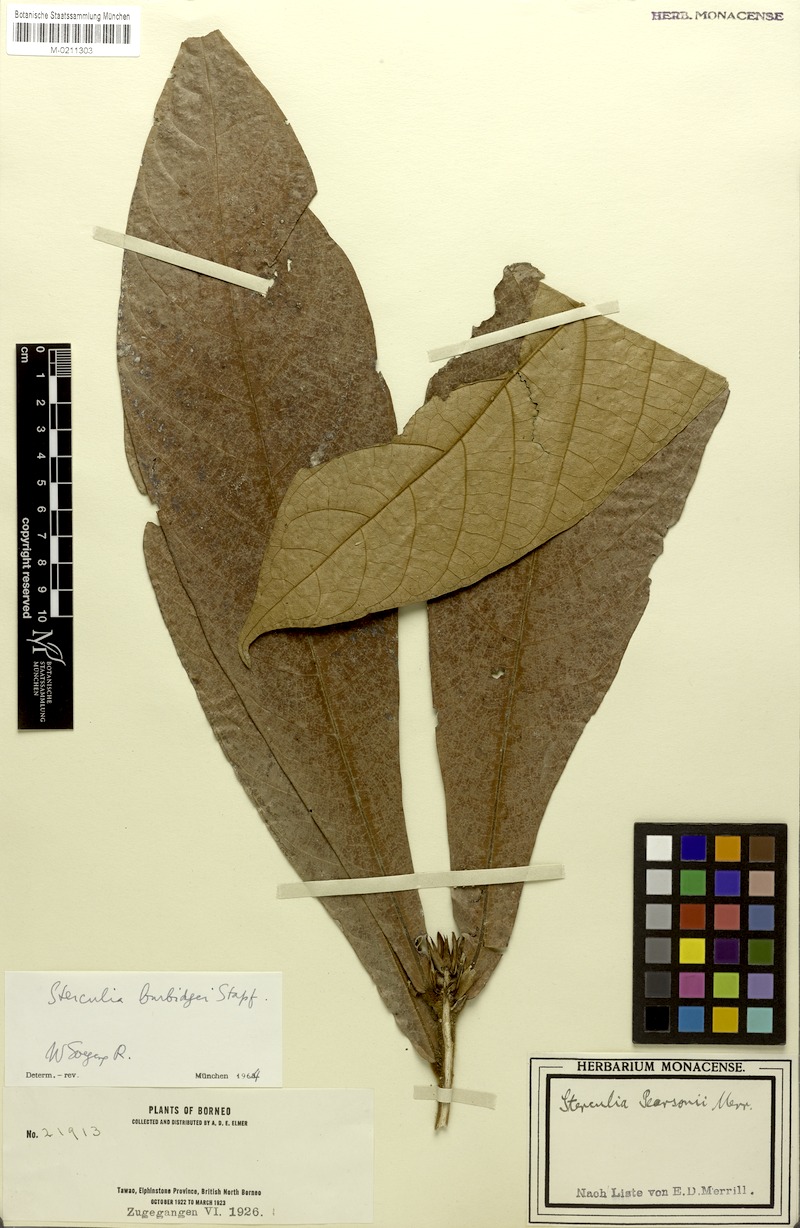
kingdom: Plantae
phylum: Tracheophyta
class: Magnoliopsida
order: Malvales
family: Malvaceae
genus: Sterculia
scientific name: Sterculia stipulata
